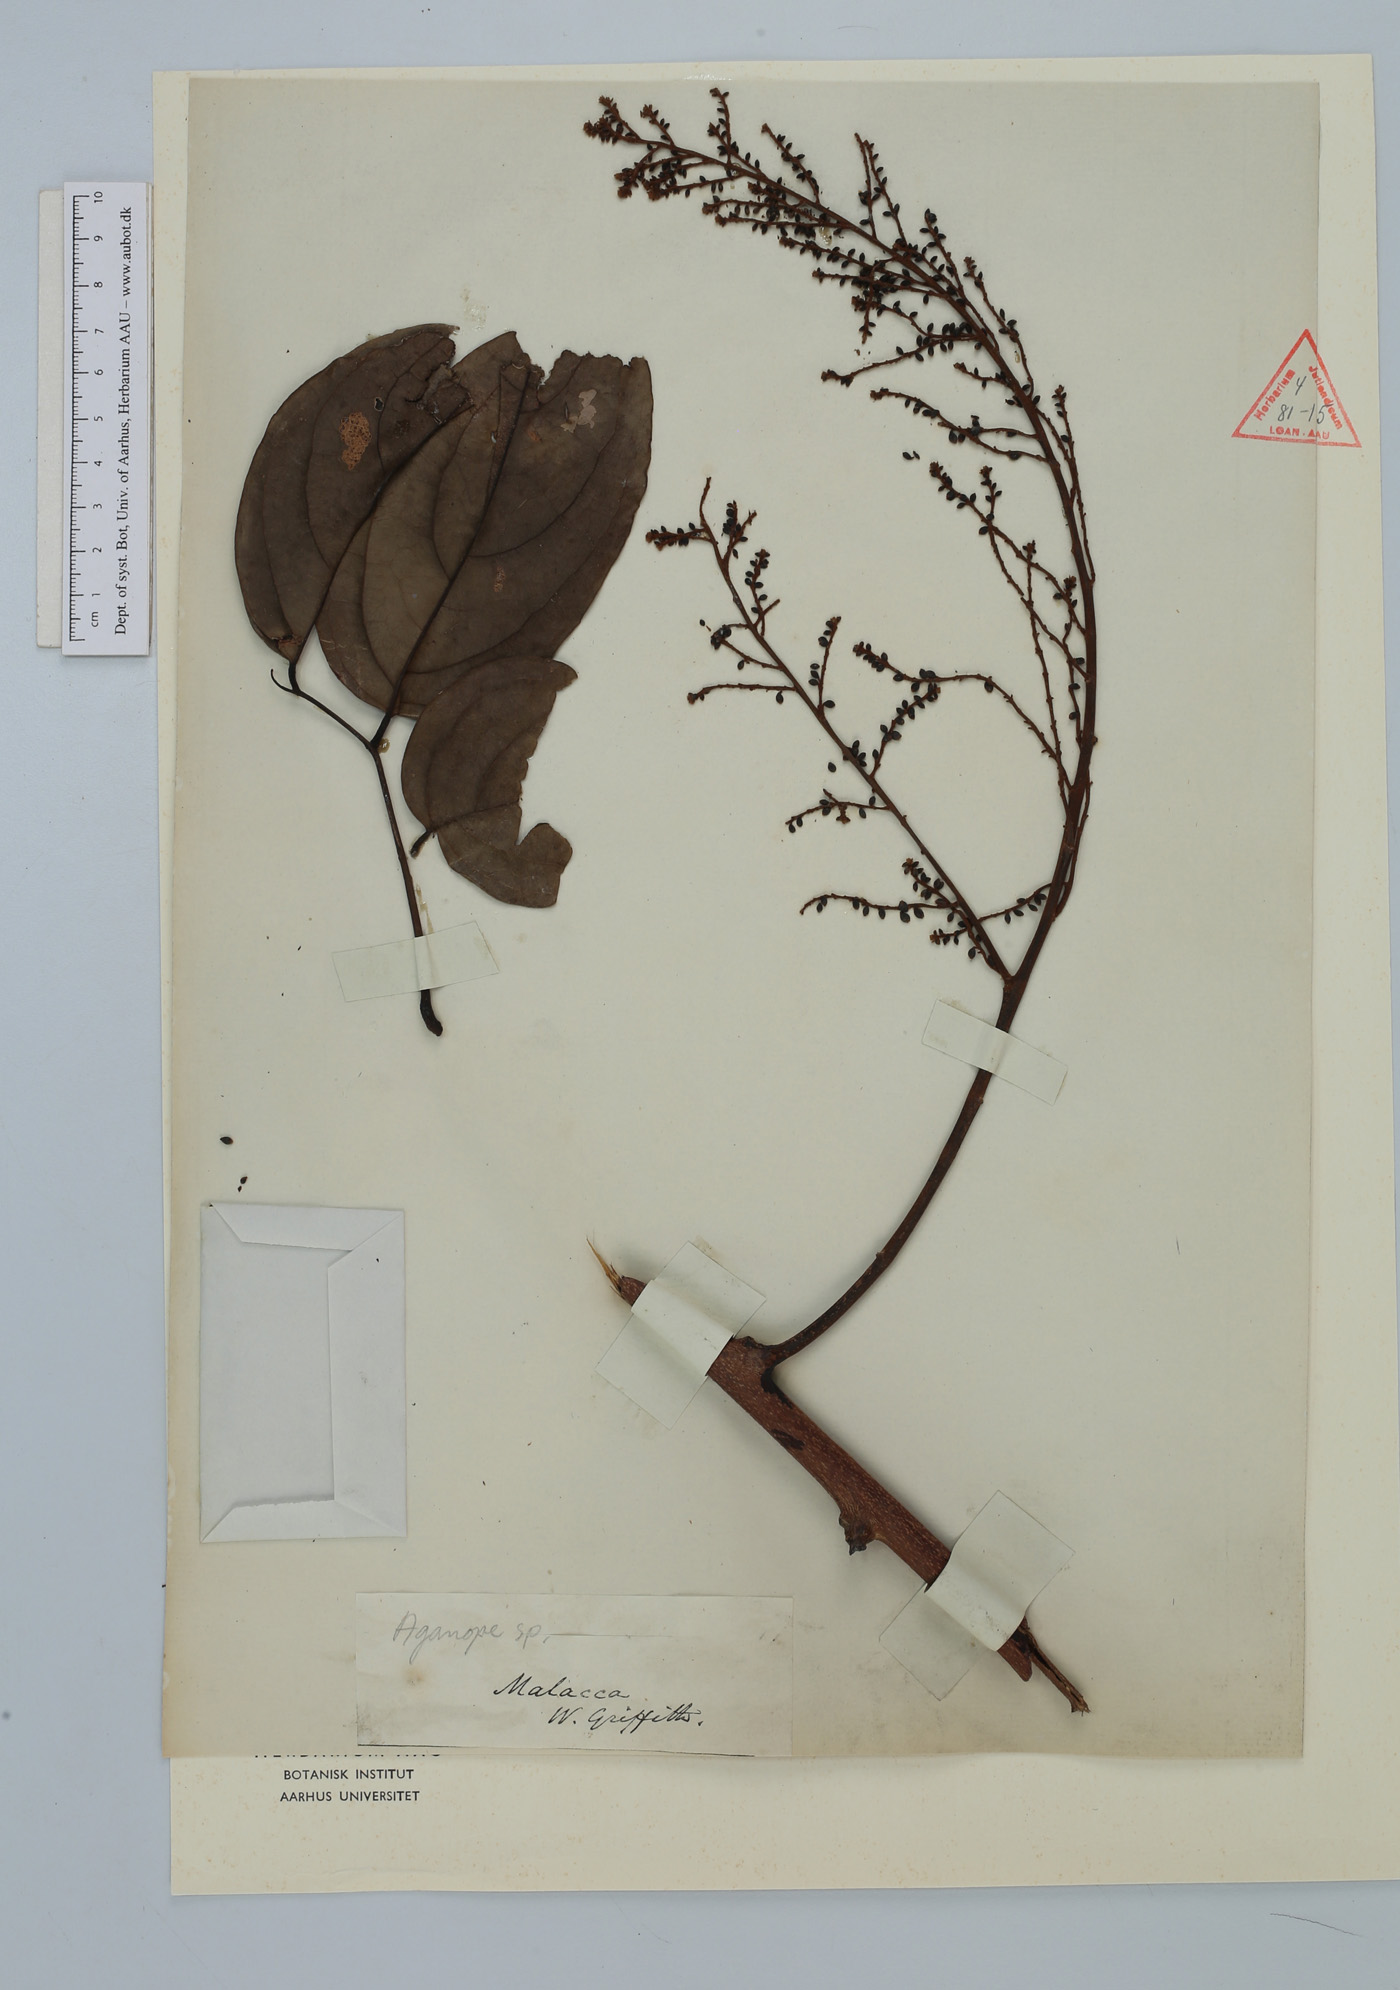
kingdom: Plantae
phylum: Tracheophyta
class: Magnoliopsida
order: Fabales
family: Fabaceae
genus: Aganope
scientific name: Aganope
